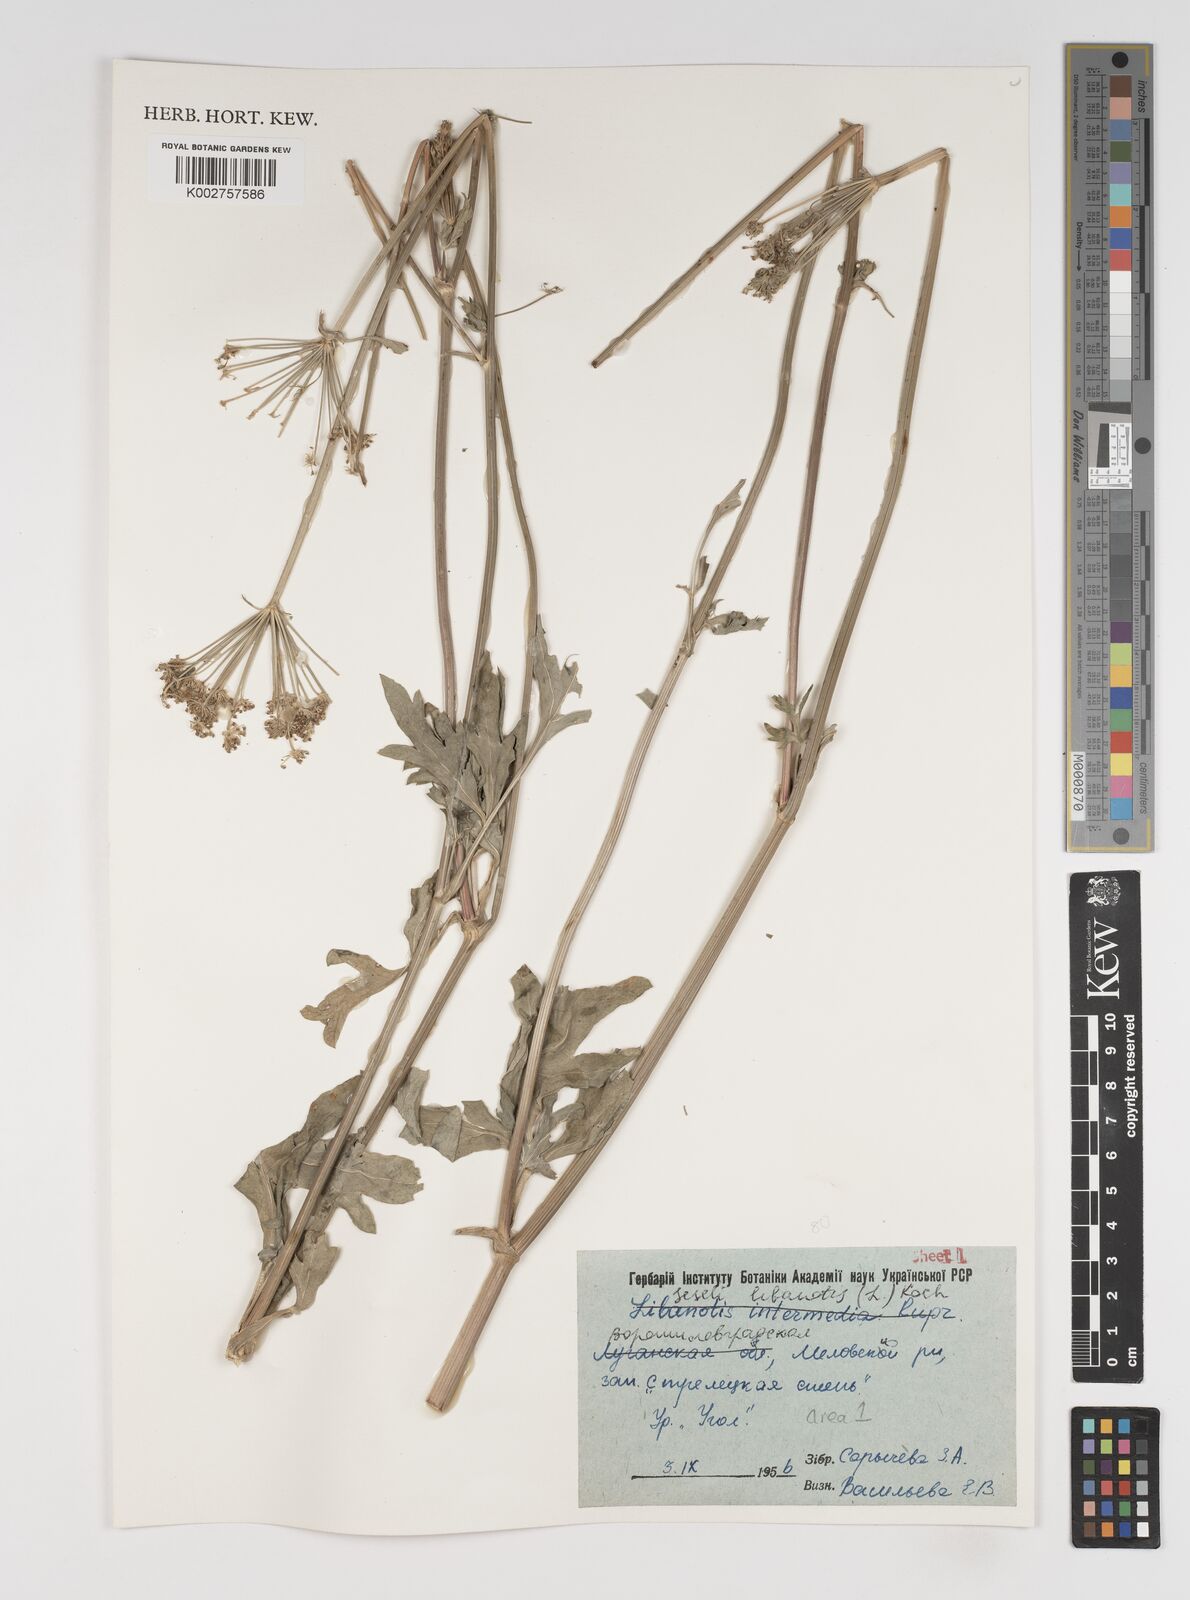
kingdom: Plantae
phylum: Tracheophyta
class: Magnoliopsida
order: Apiales
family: Apiaceae
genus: Seseli
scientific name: Seseli libanotis
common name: Mooncarrot
